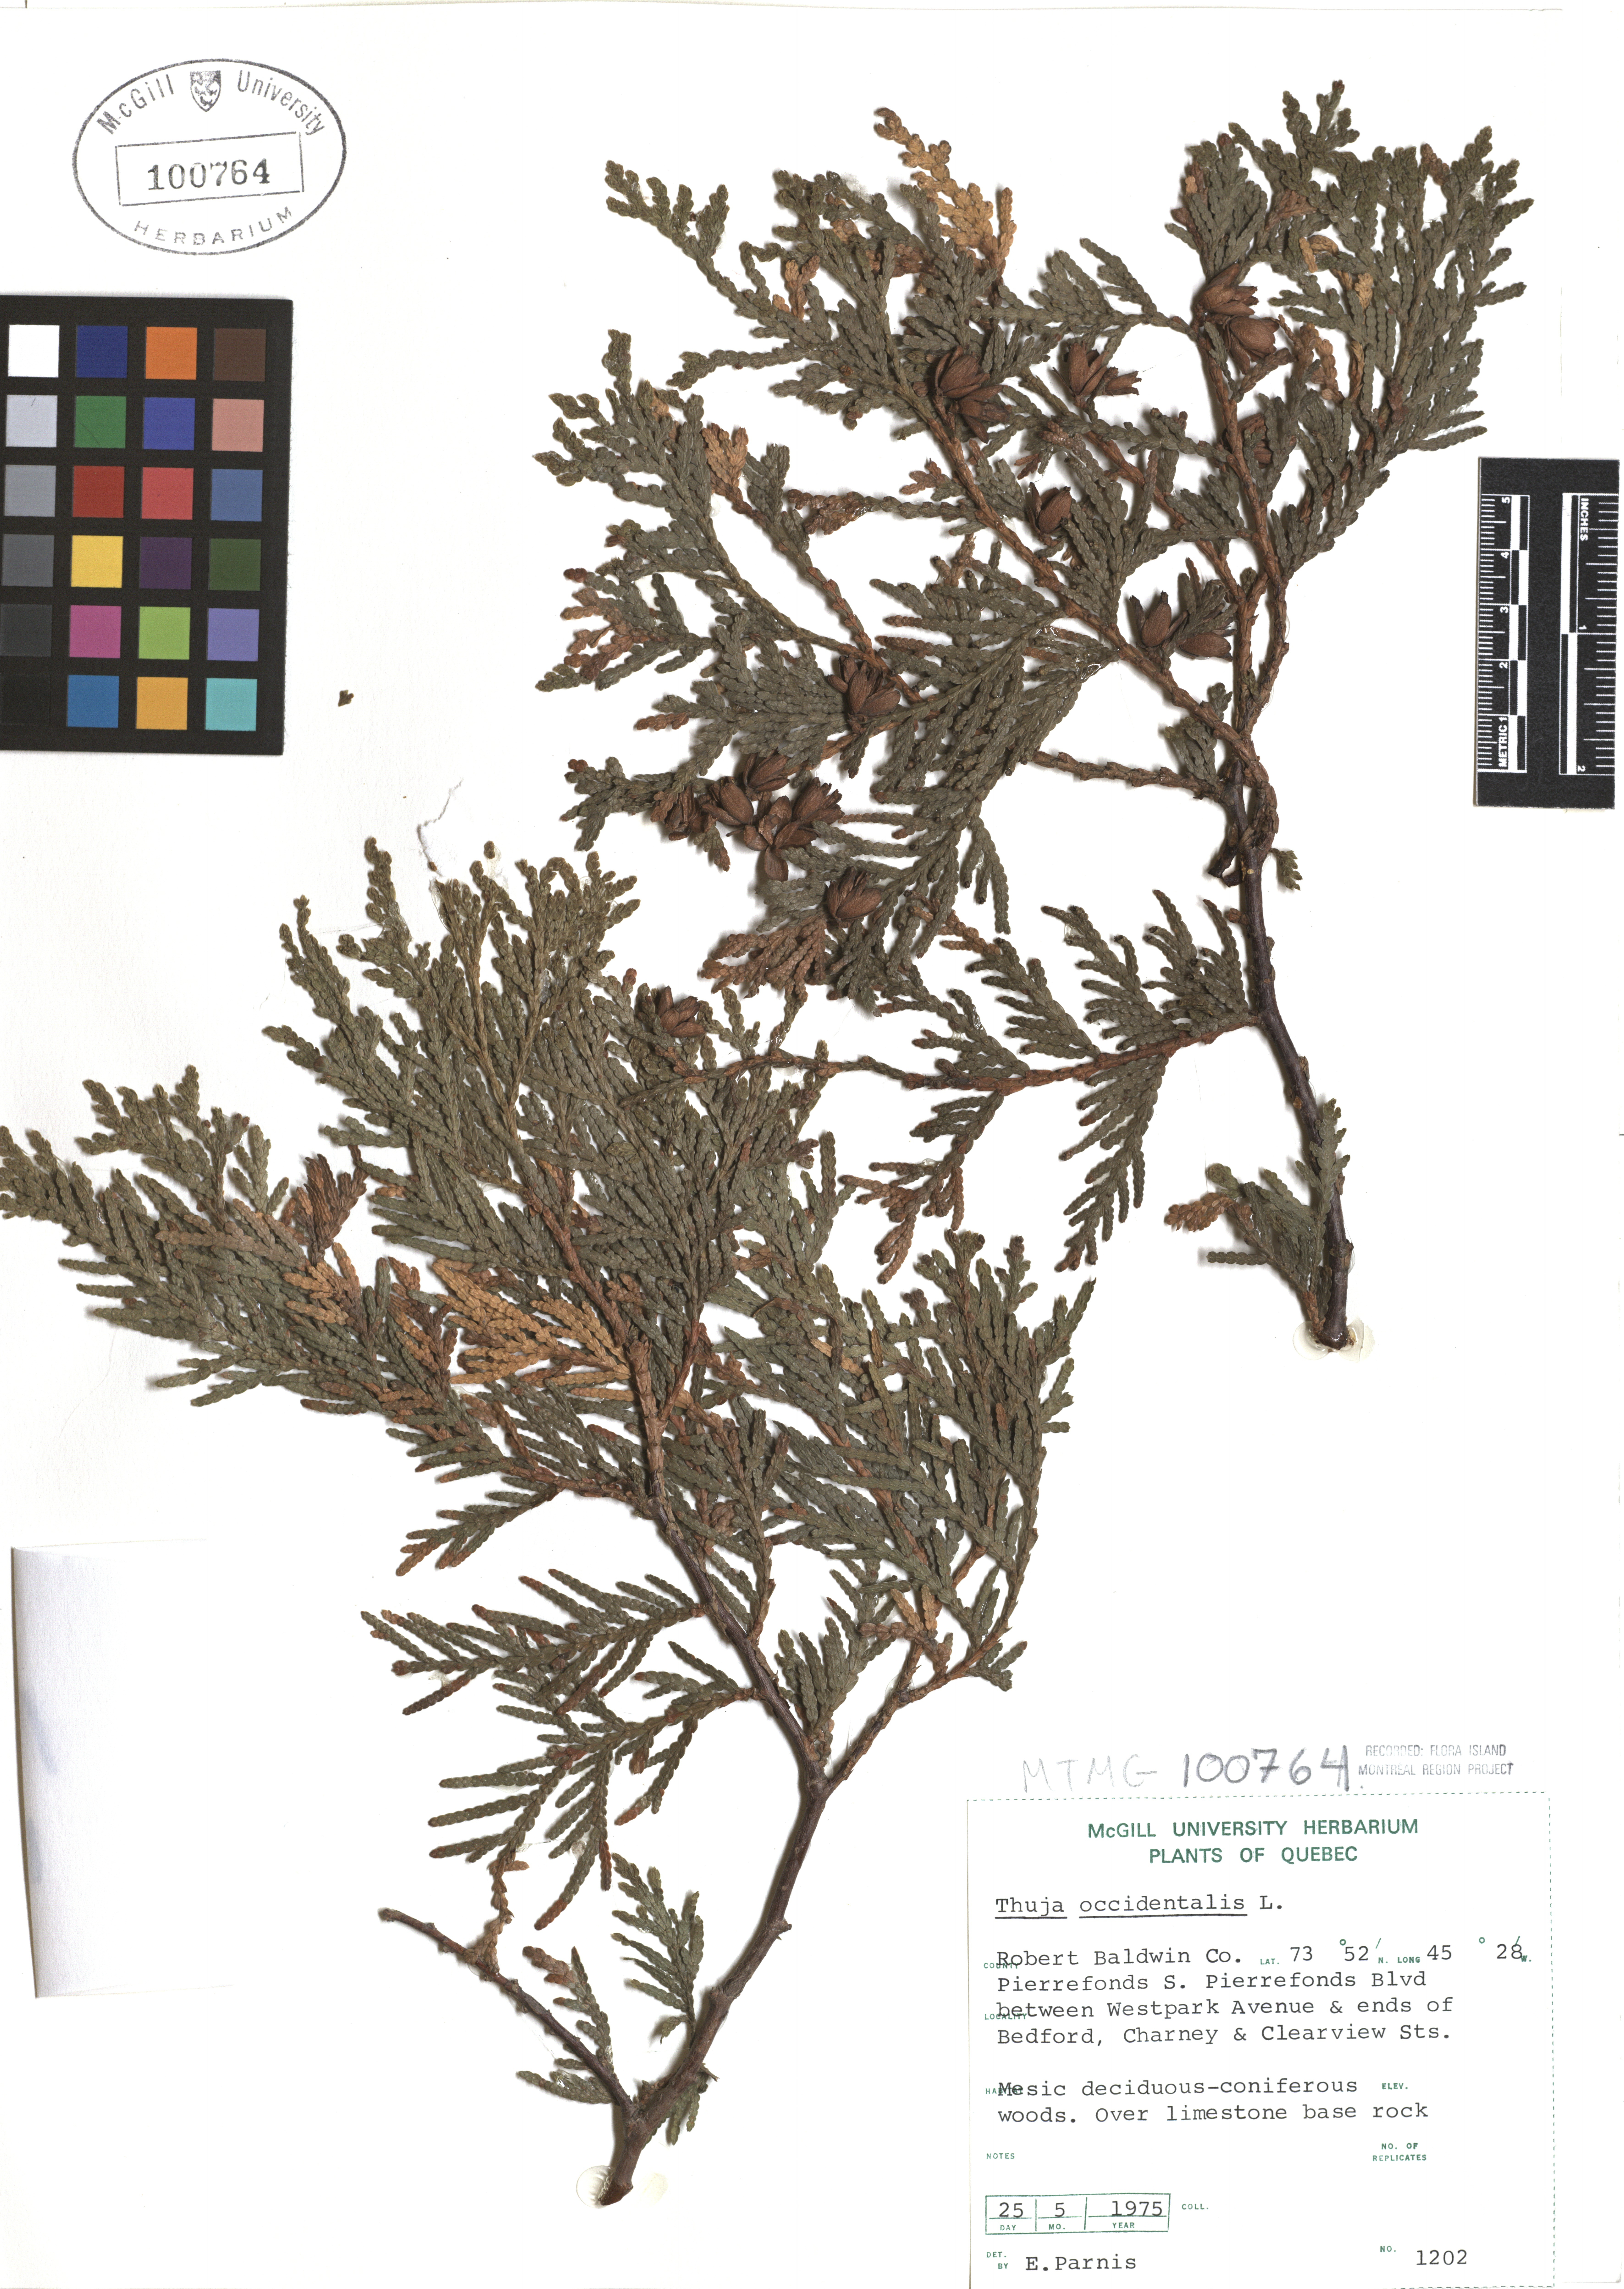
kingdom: Plantae
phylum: Tracheophyta
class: Pinopsida
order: Pinales
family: Cupressaceae
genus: Thuja
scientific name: Thuja occidentalis
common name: Northern white-cedar
